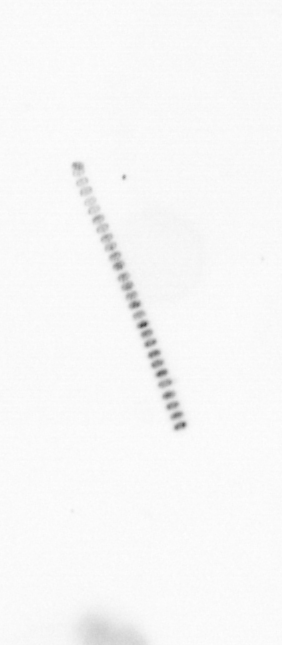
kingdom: Chromista
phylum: Ochrophyta
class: Bacillariophyceae
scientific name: Bacillariophyceae
